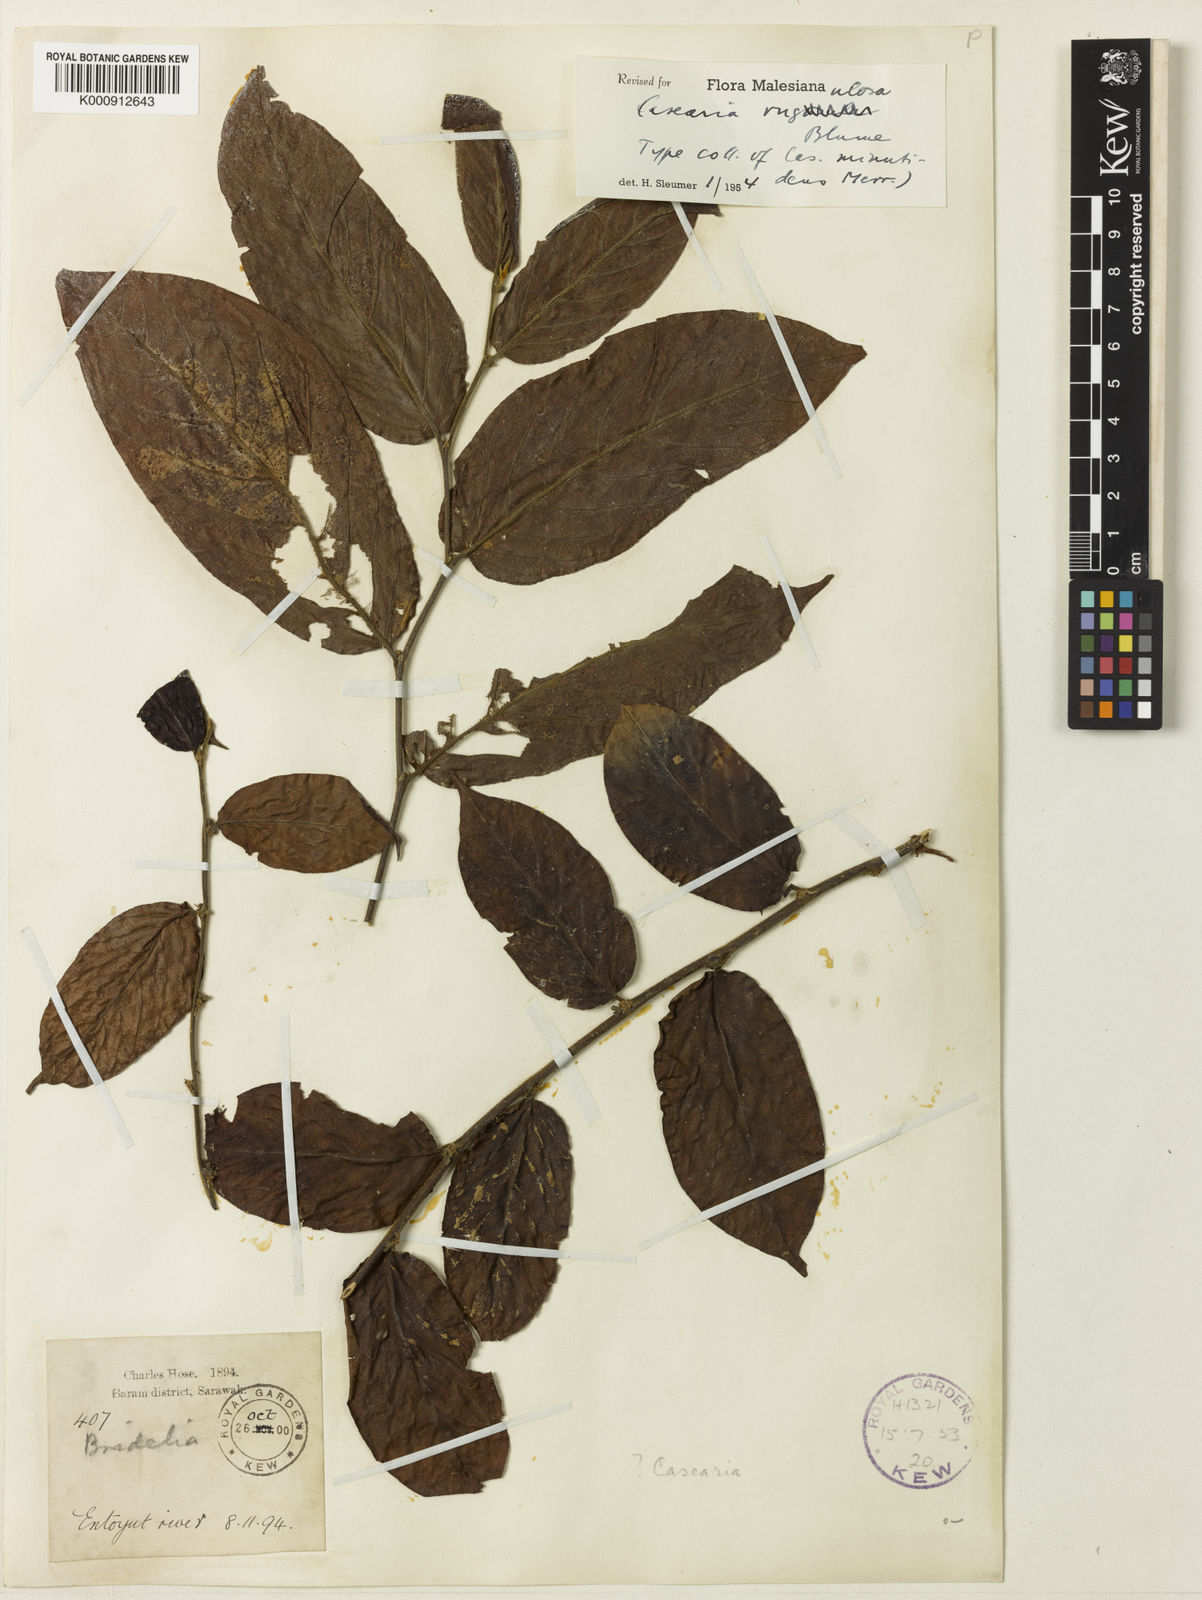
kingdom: Plantae
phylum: Tracheophyta
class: Magnoliopsida
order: Malpighiales
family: Salicaceae
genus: Casearia
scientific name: Casearia rugulosa
